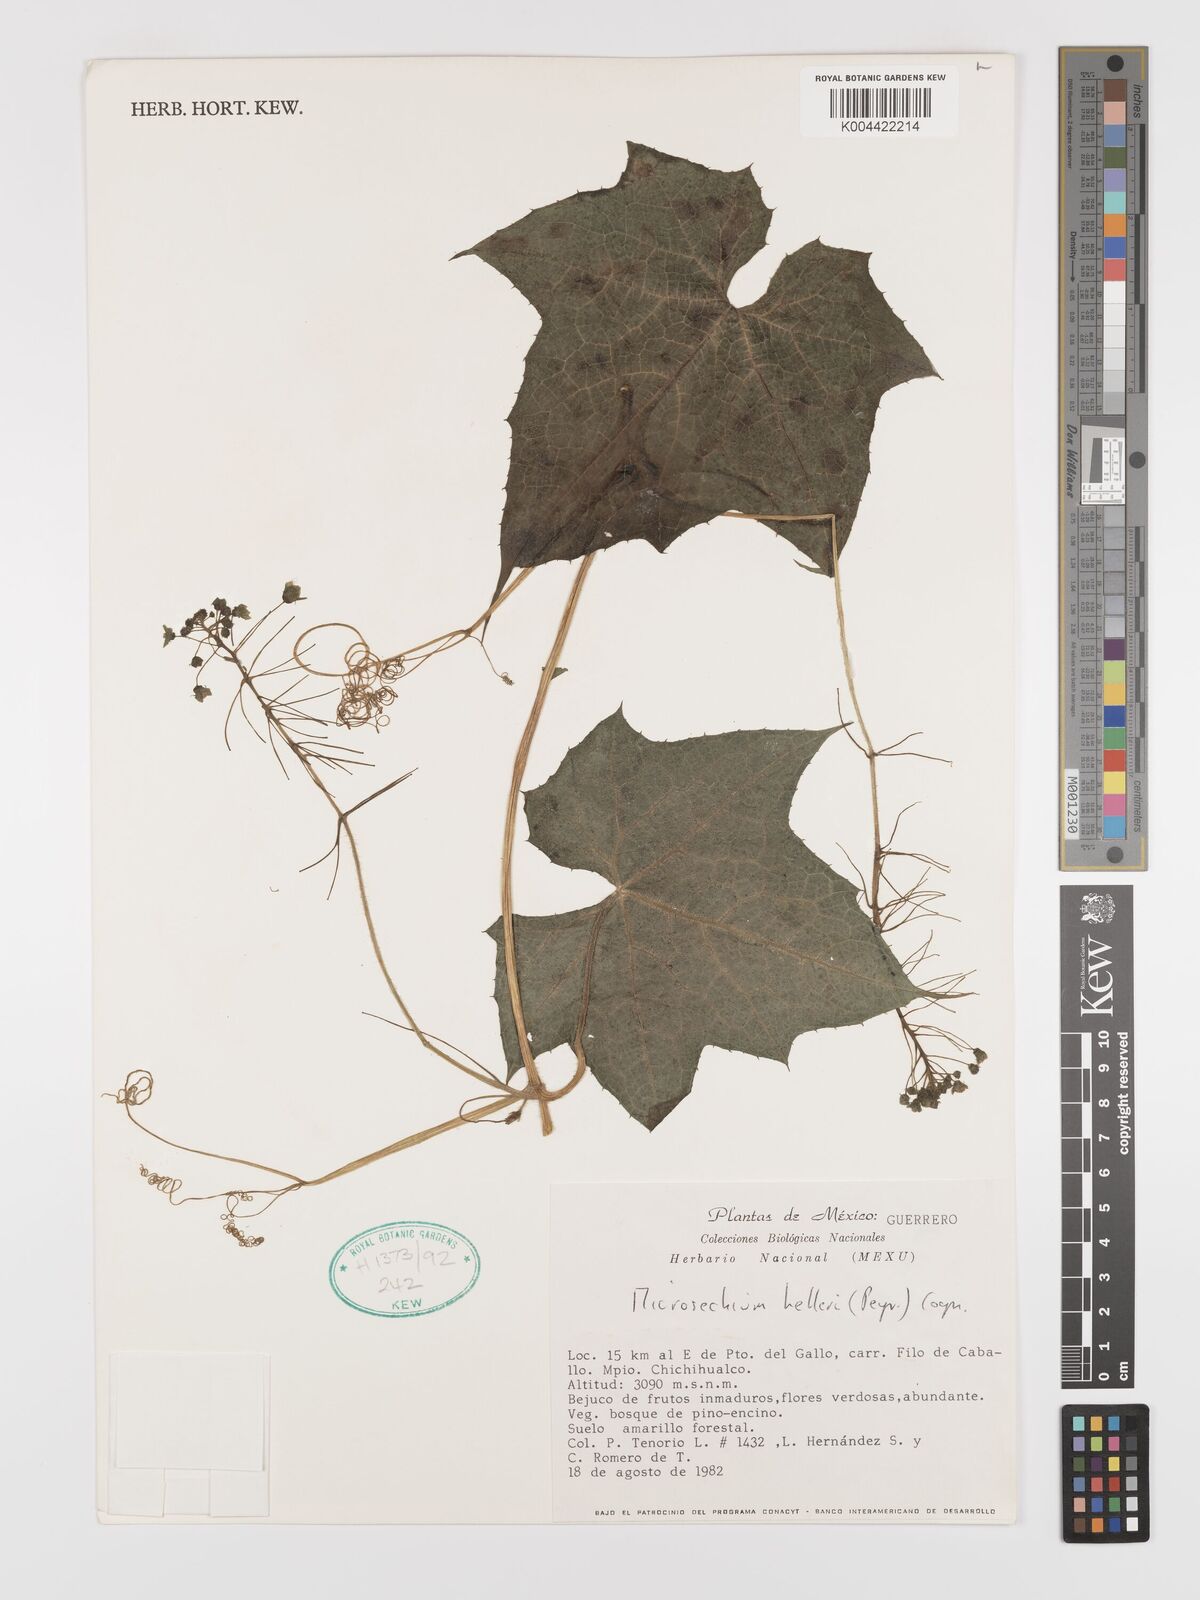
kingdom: Plantae
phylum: Tracheophyta
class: Magnoliopsida
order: Cucurbitales
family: Cucurbitaceae
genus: Microsechium
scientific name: Microsechium palmatum
